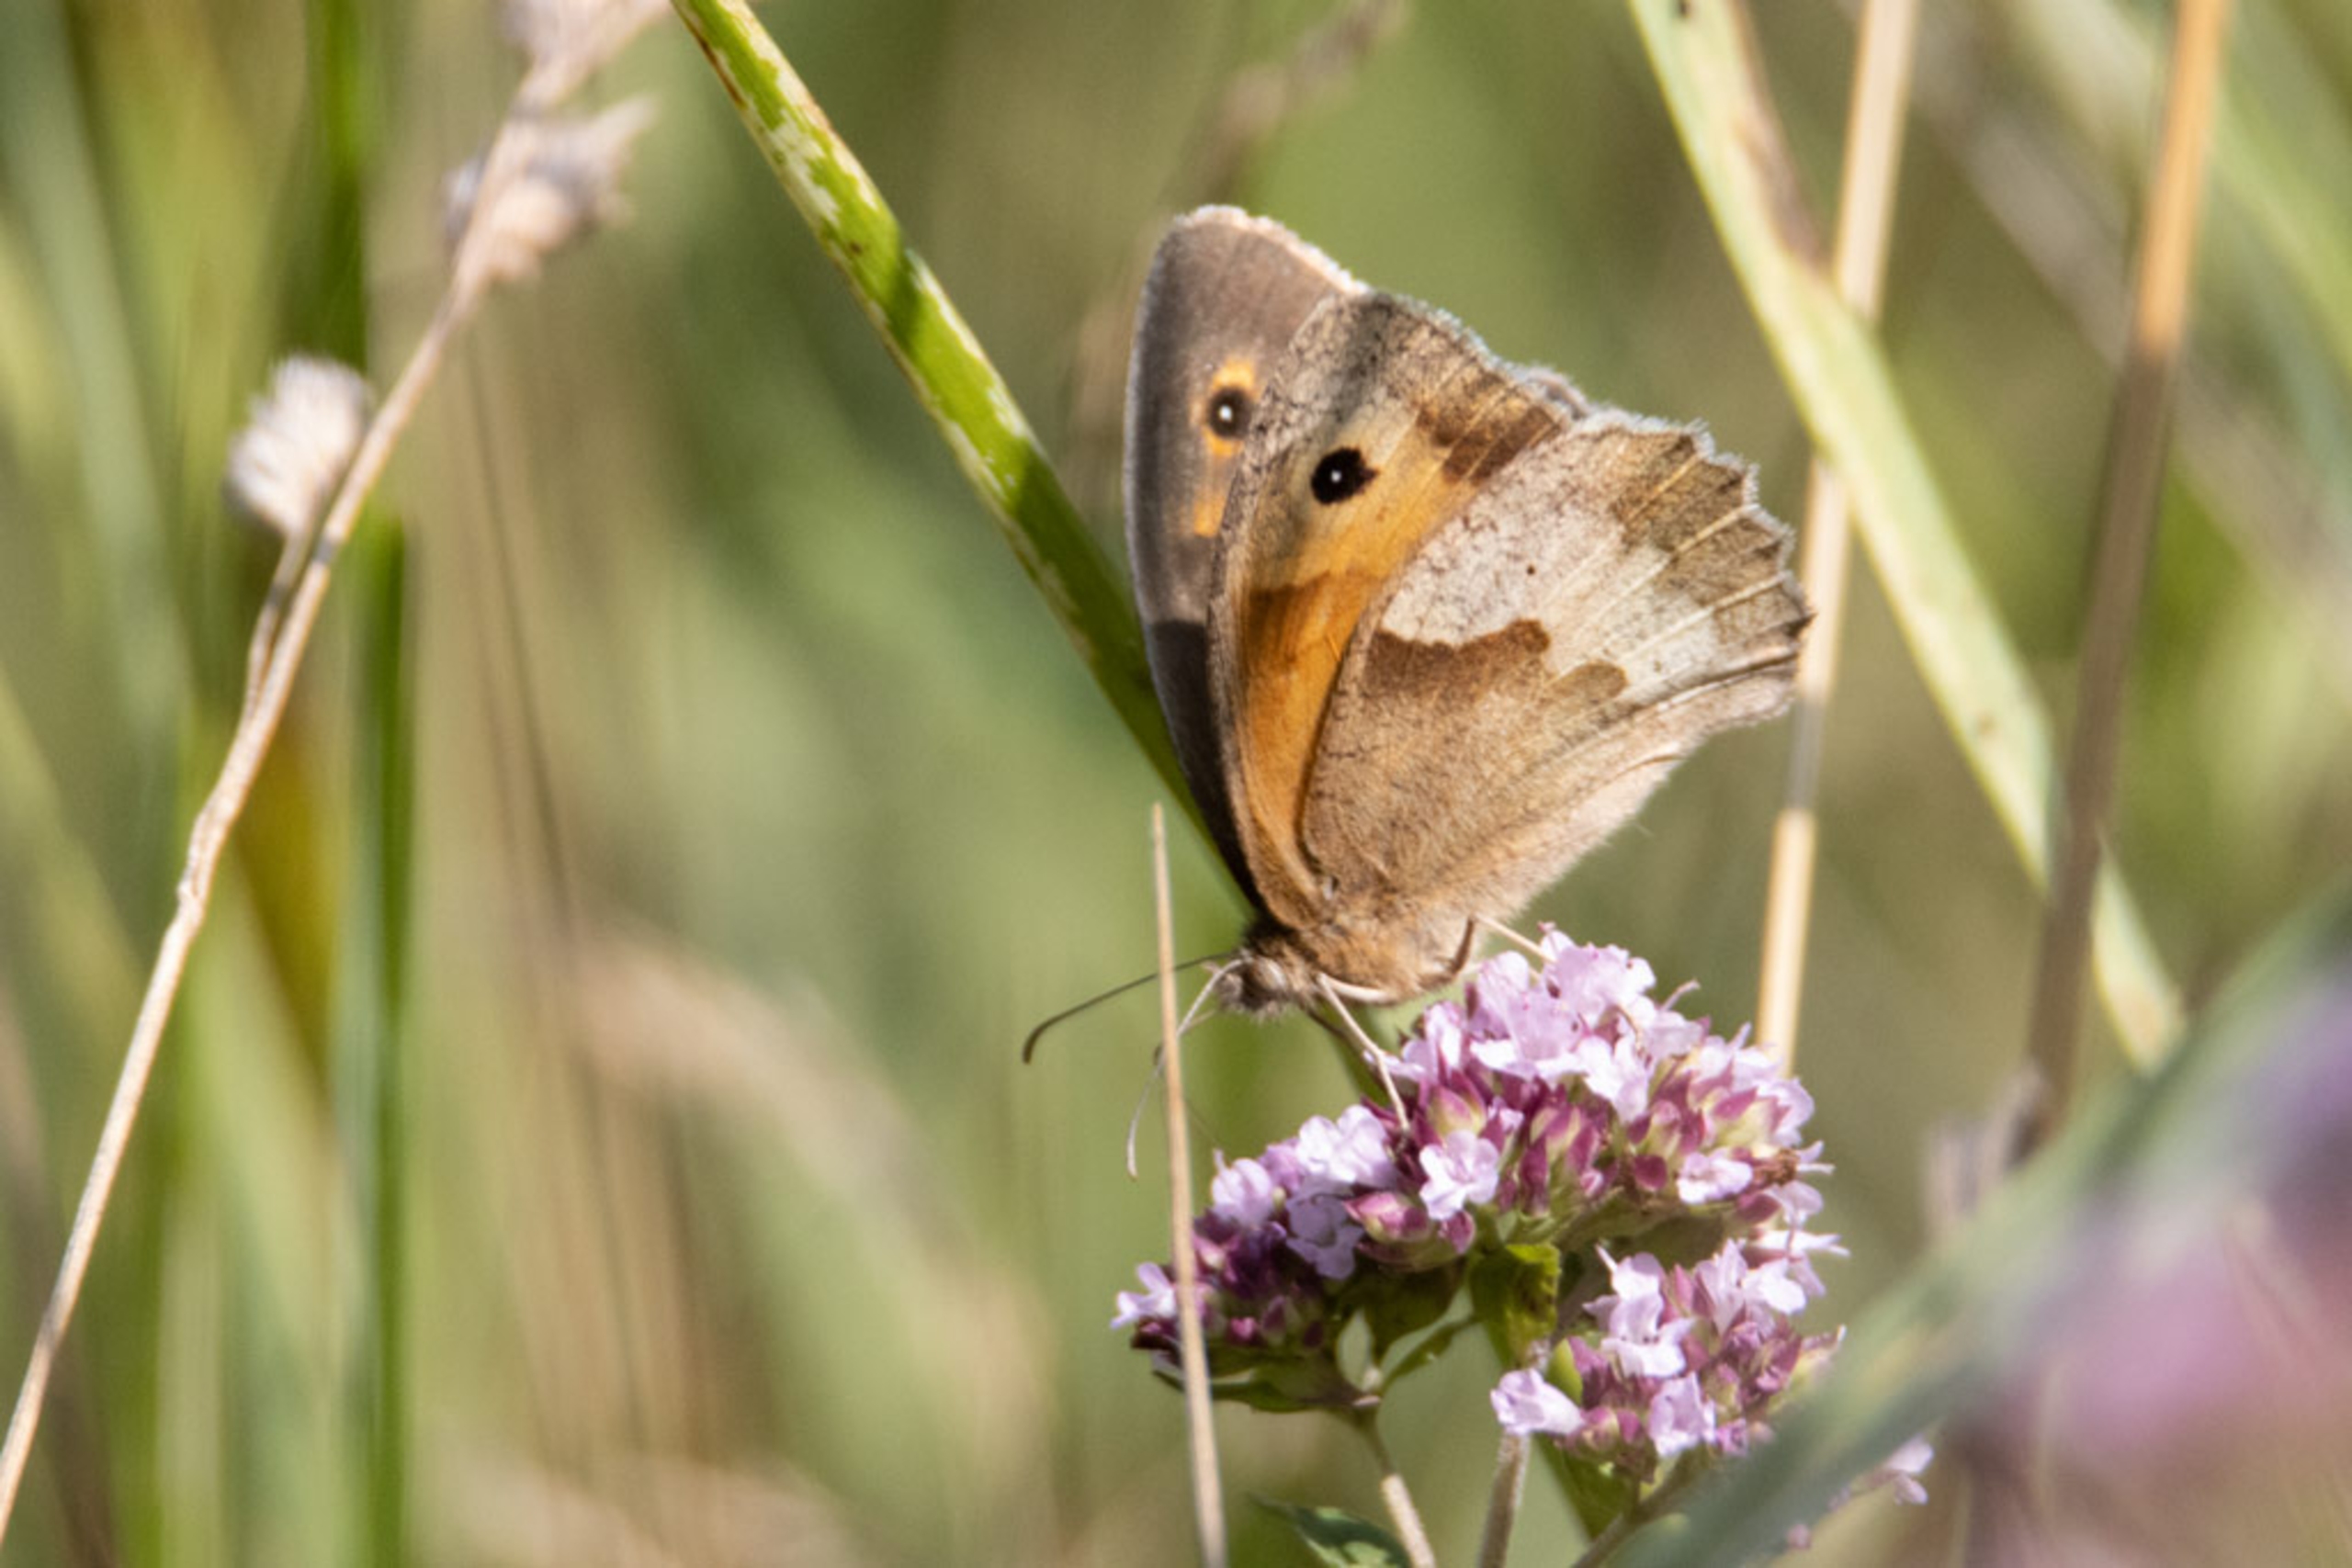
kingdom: Animalia
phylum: Arthropoda
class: Insecta
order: Lepidoptera
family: Nymphalidae
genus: Maniola
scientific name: Maniola jurtina
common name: Græsrandøje
